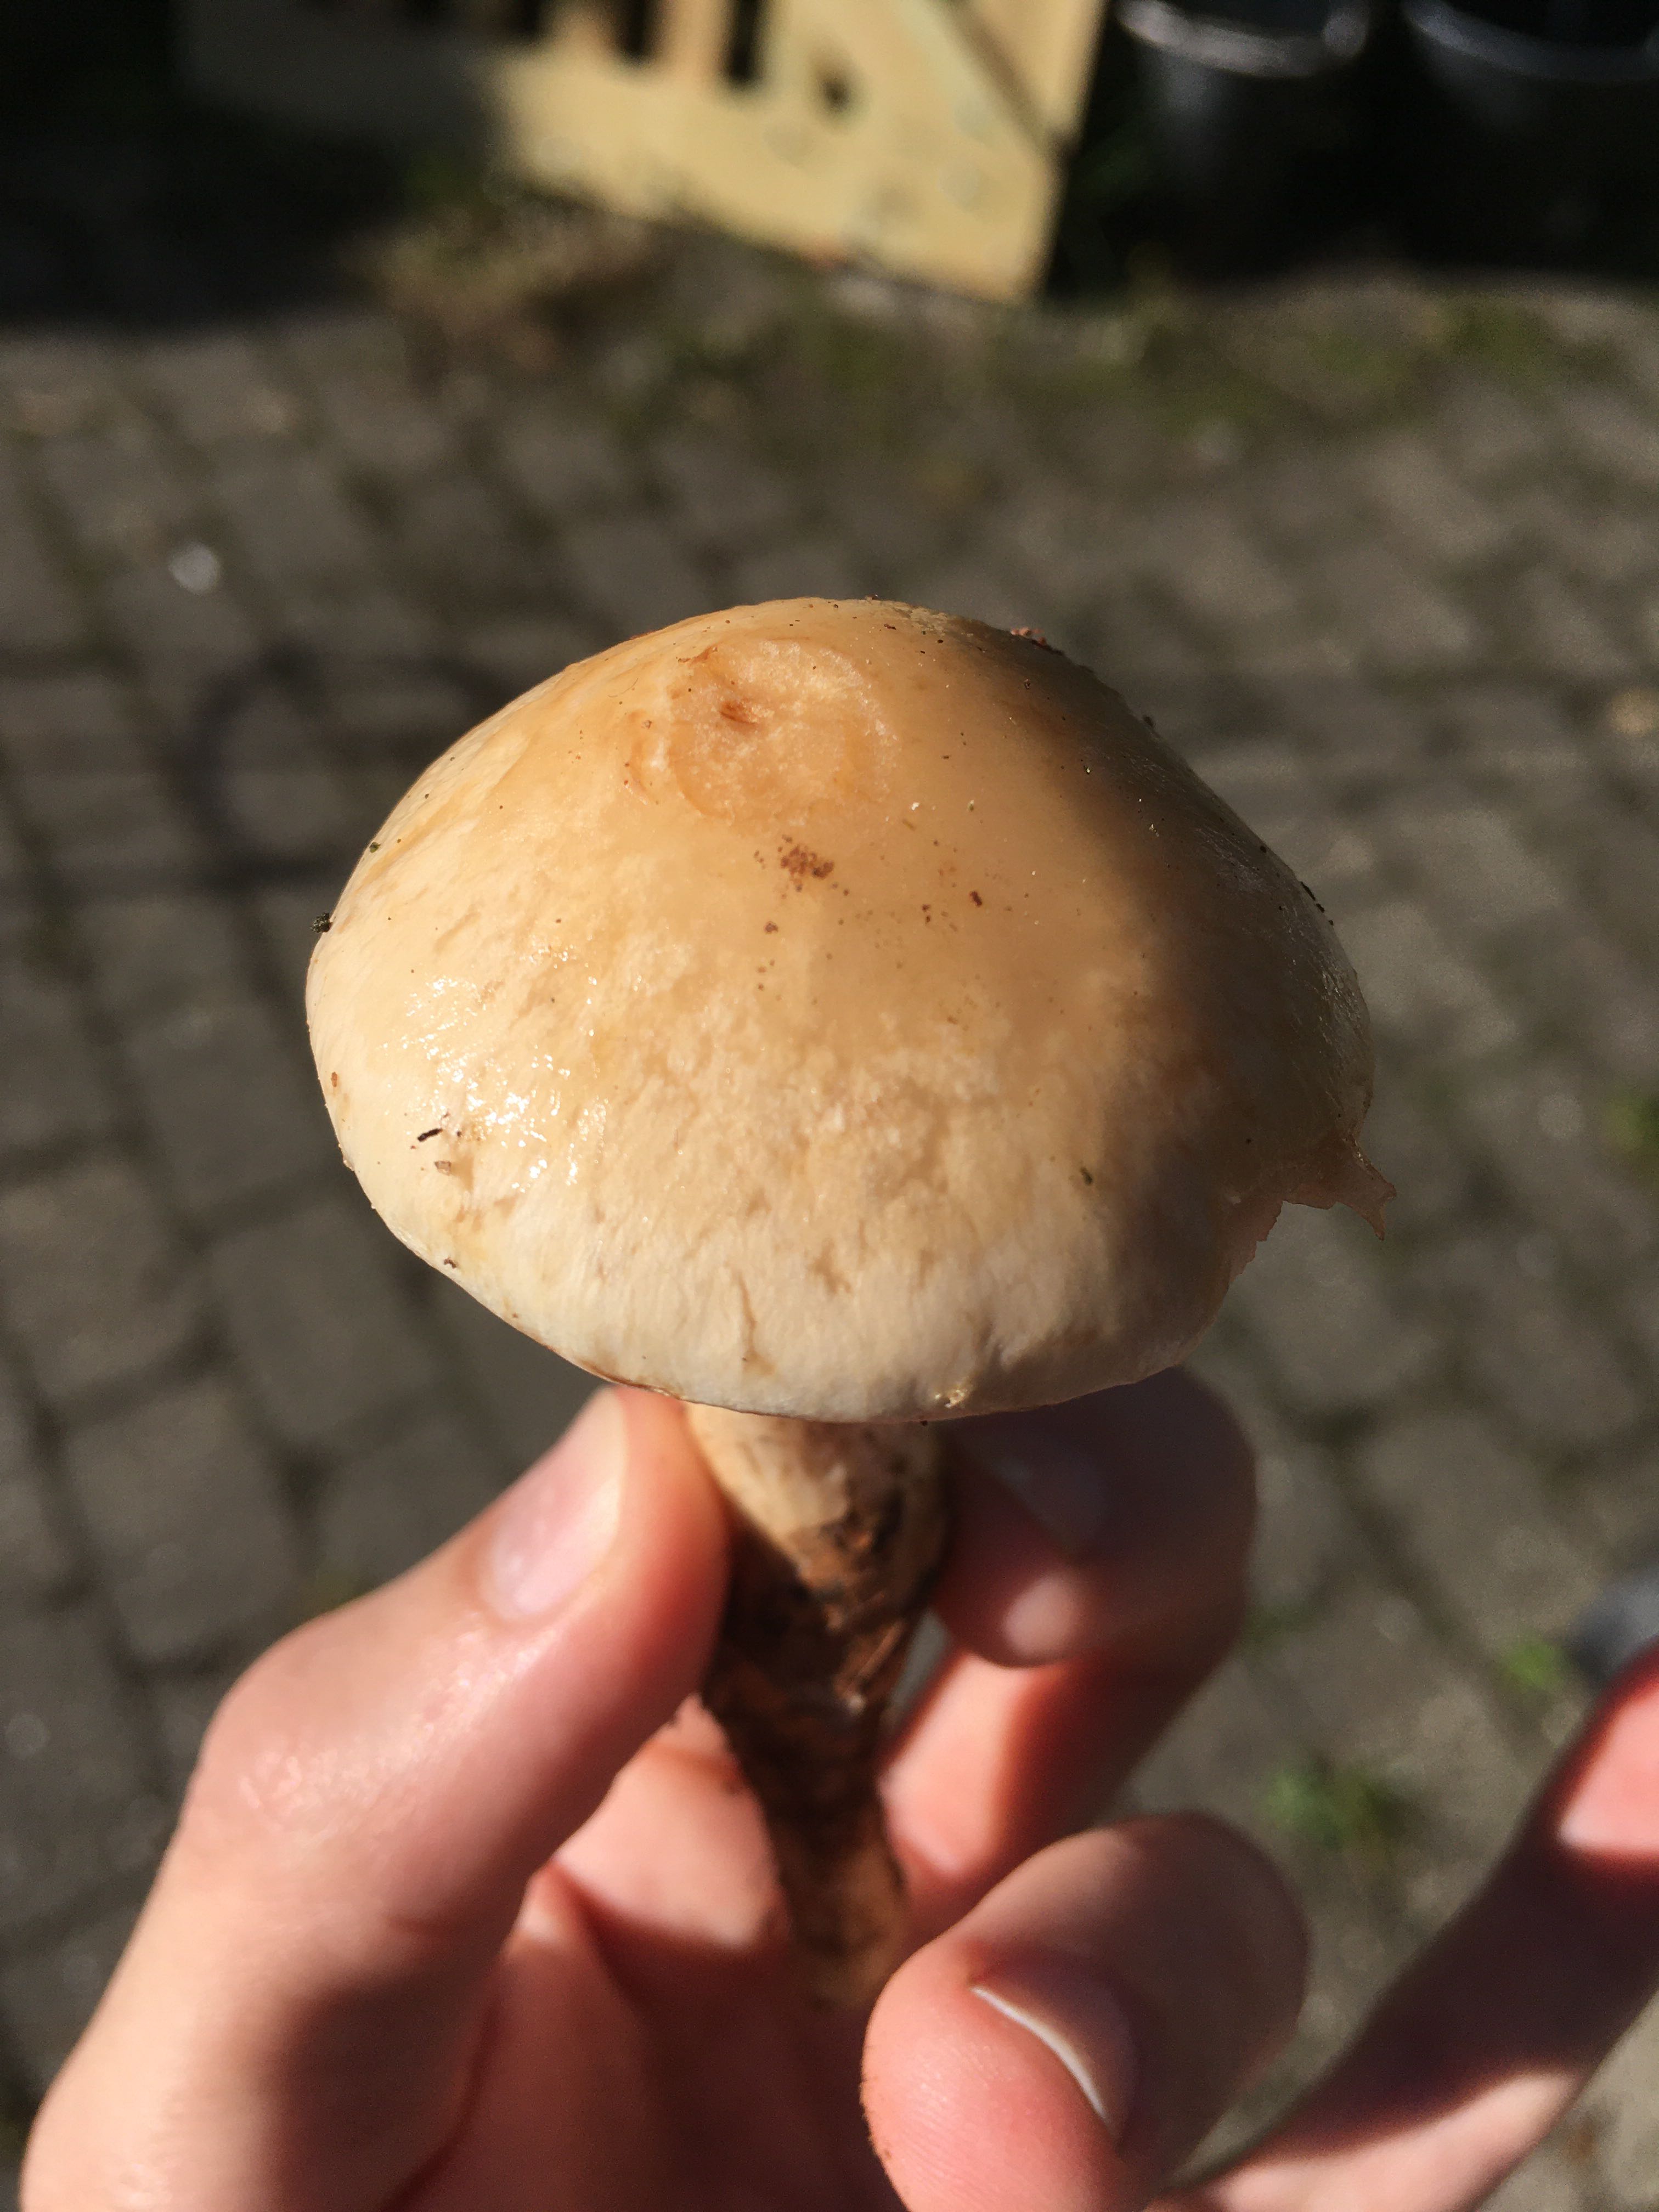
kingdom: Fungi
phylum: Basidiomycota
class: Agaricomycetes
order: Agaricales
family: Hymenogastraceae
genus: Hebeloma
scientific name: Hebeloma radicosum
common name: pælerods-tåreblad
